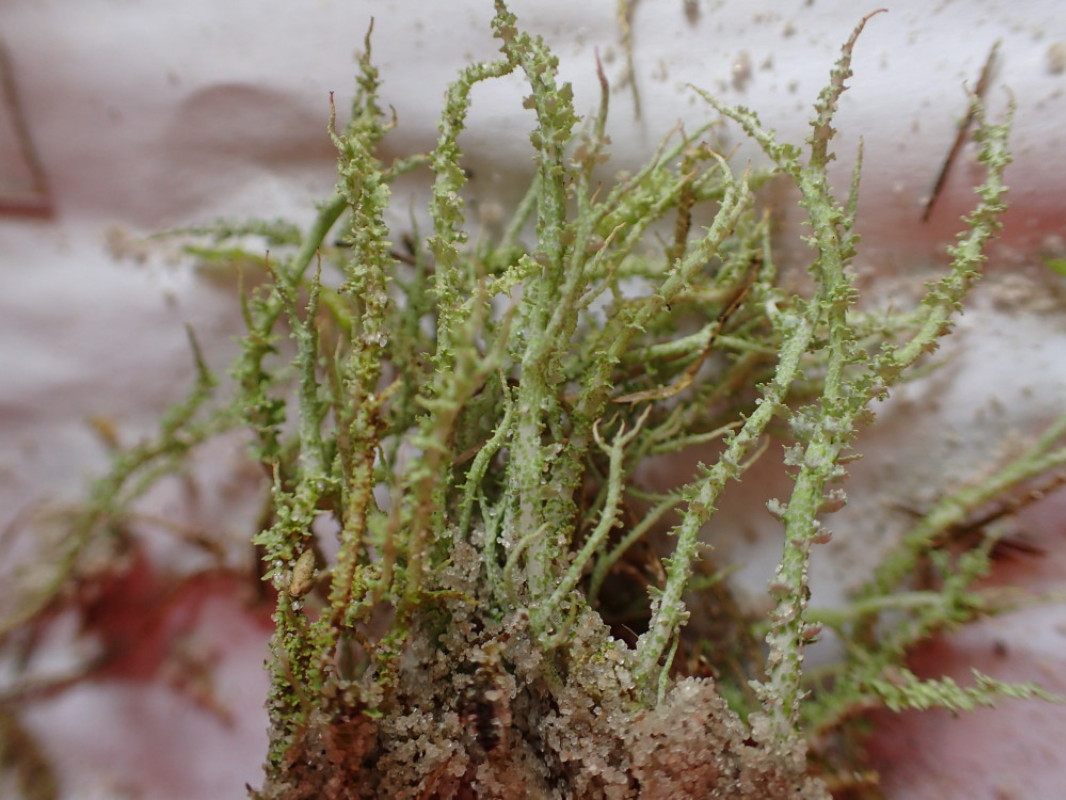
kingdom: Fungi
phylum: Ascomycota
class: Lecanoromycetes
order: Lecanorales
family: Cladoniaceae
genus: Cladonia
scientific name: Cladonia scabriuscula
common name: ru bægerlav
